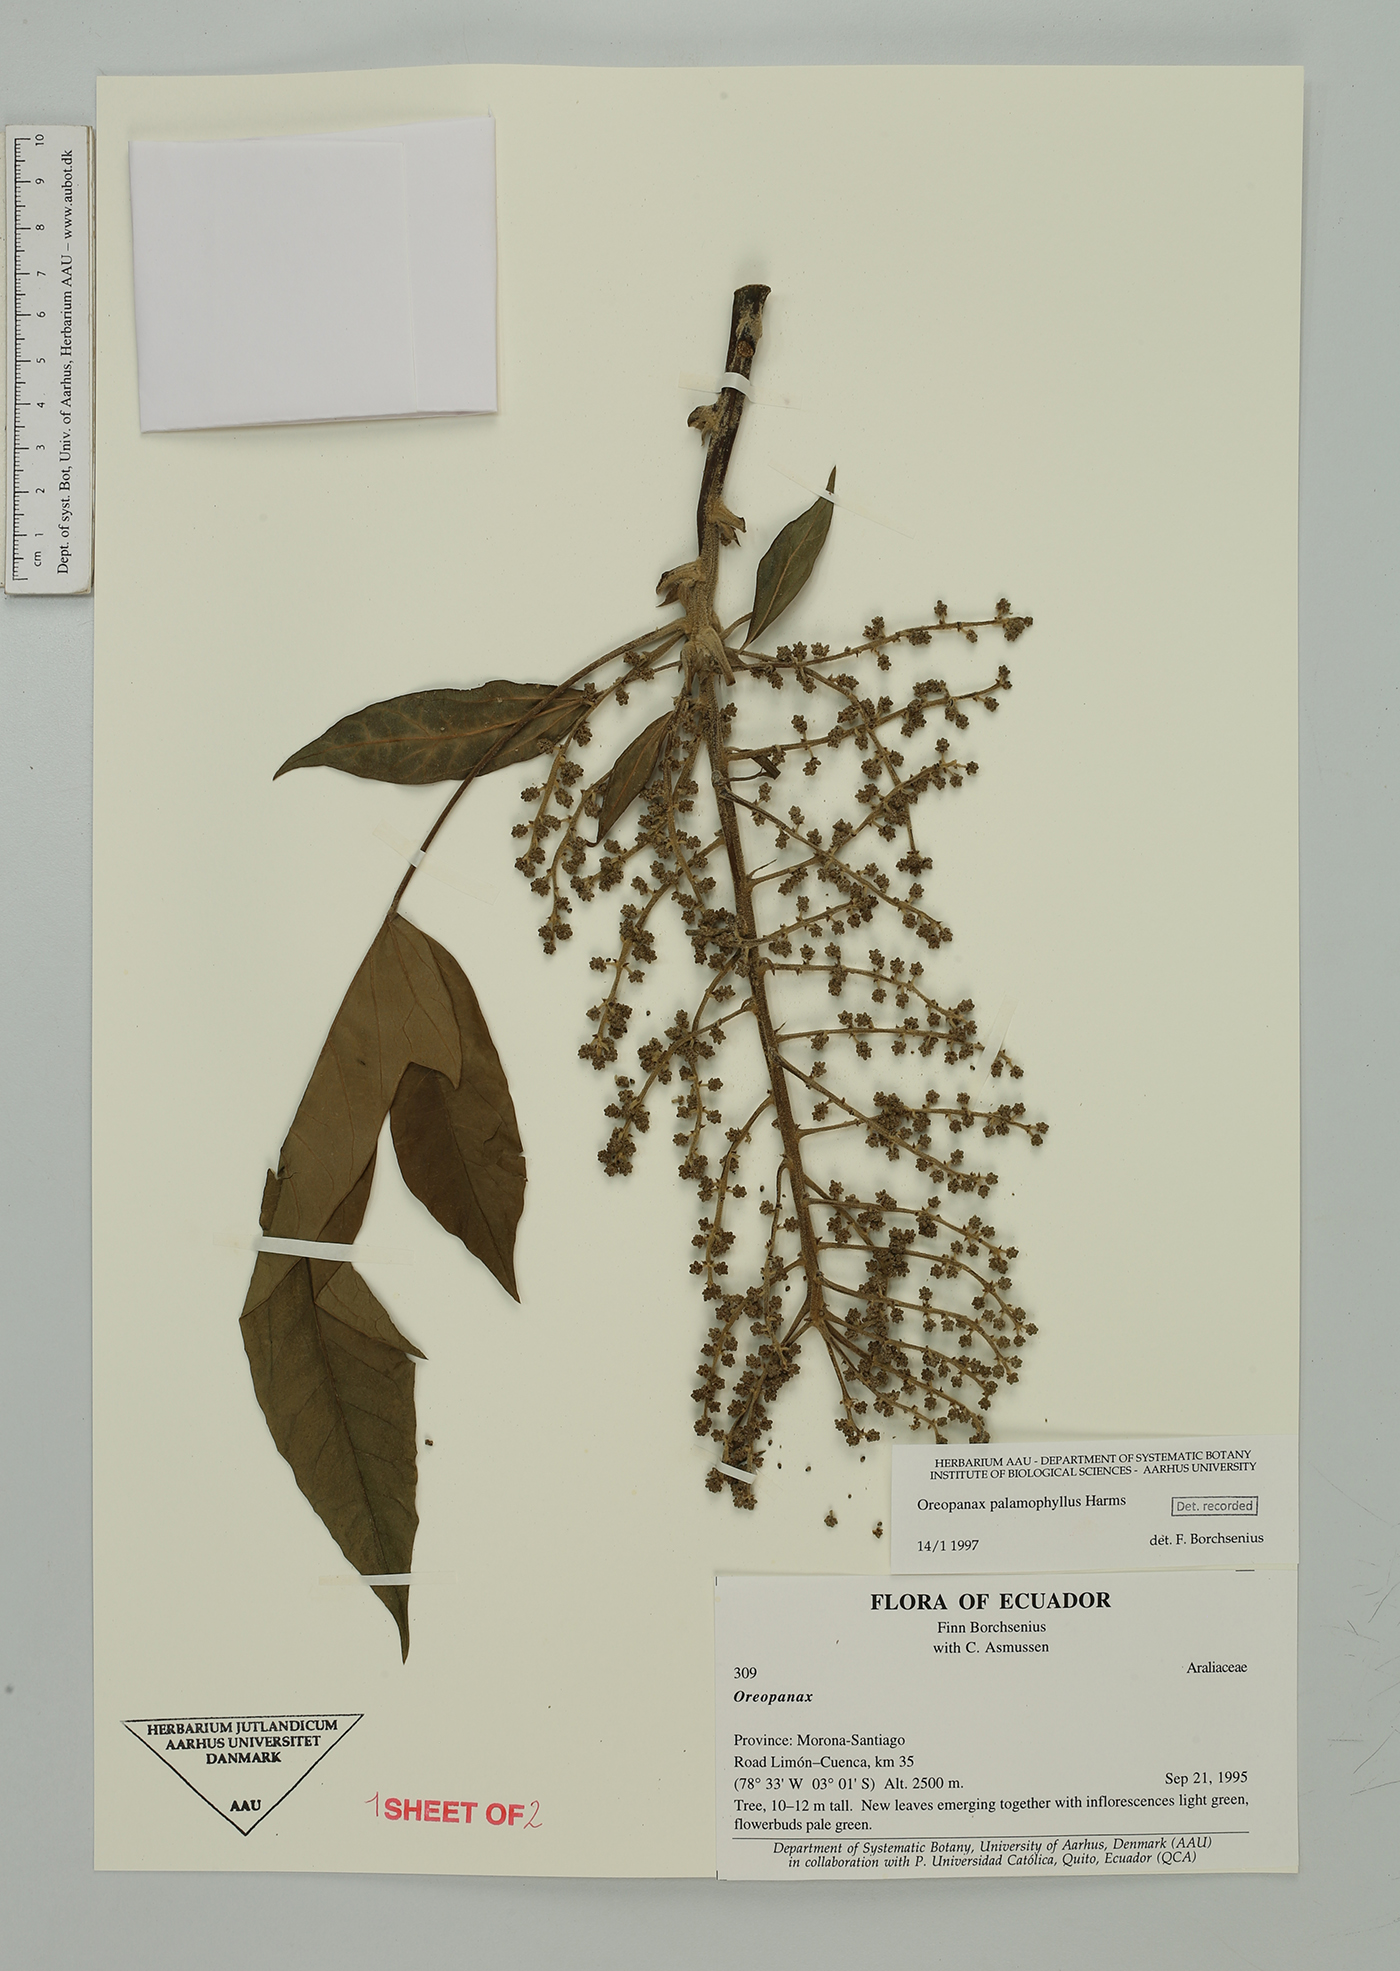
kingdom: Plantae
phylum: Tracheophyta
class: Magnoliopsida
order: Apiales
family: Araliaceae
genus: Oreopanax
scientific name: Oreopanax palamophyllus
